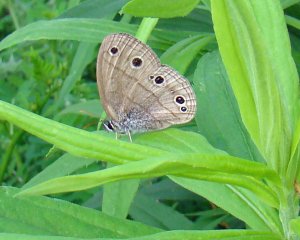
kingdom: Animalia
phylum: Arthropoda
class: Insecta
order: Lepidoptera
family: Nymphalidae
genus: Euptychia
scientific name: Euptychia cymela
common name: Little Wood Satyr
